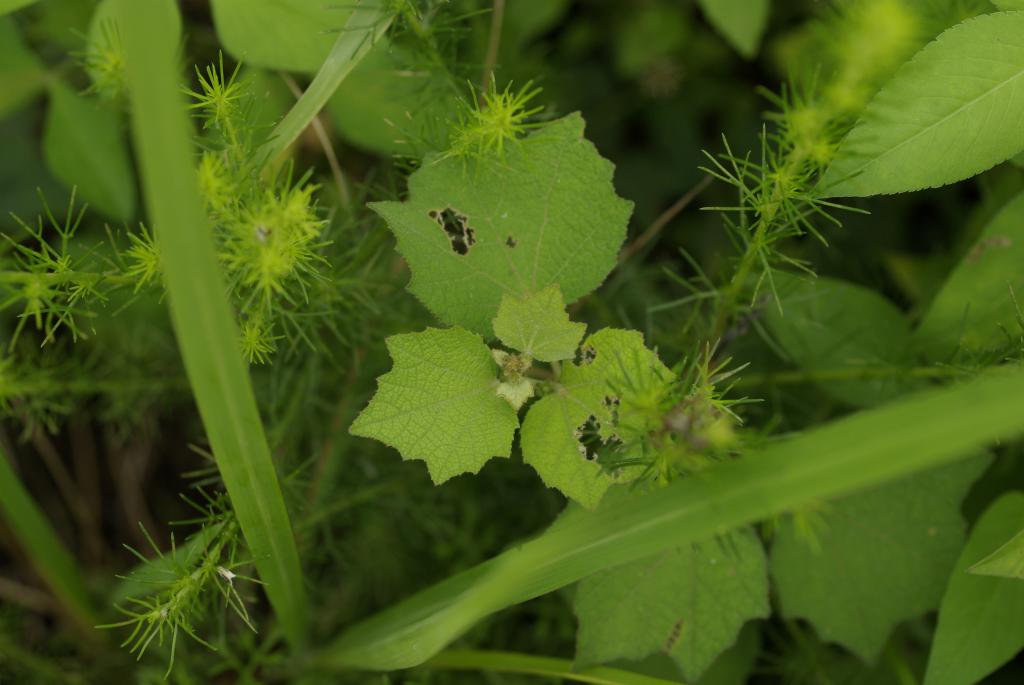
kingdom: Plantae
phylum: Tracheophyta
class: Magnoliopsida
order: Malvales
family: Malvaceae
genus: Urena
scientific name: Urena lobata
